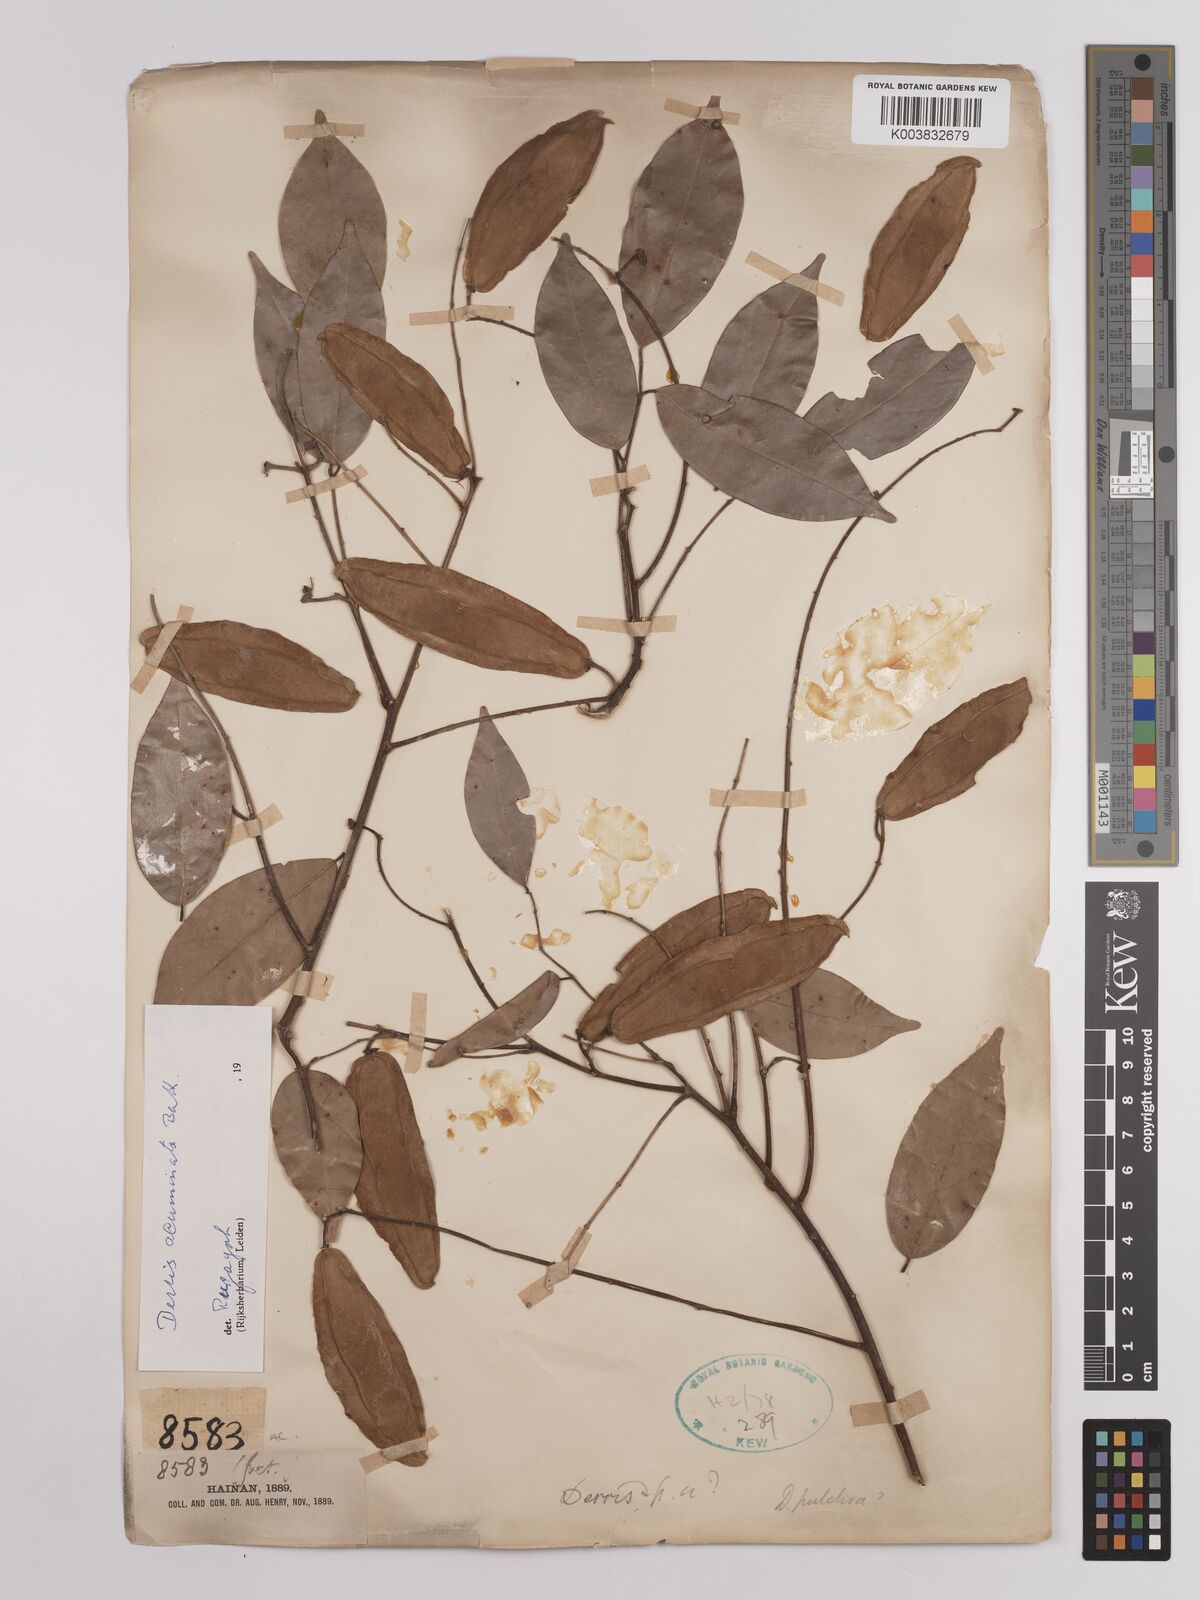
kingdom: Plantae
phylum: Tracheophyta
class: Magnoliopsida
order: Fabales
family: Fabaceae
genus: Derris
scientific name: Derris acuminata
